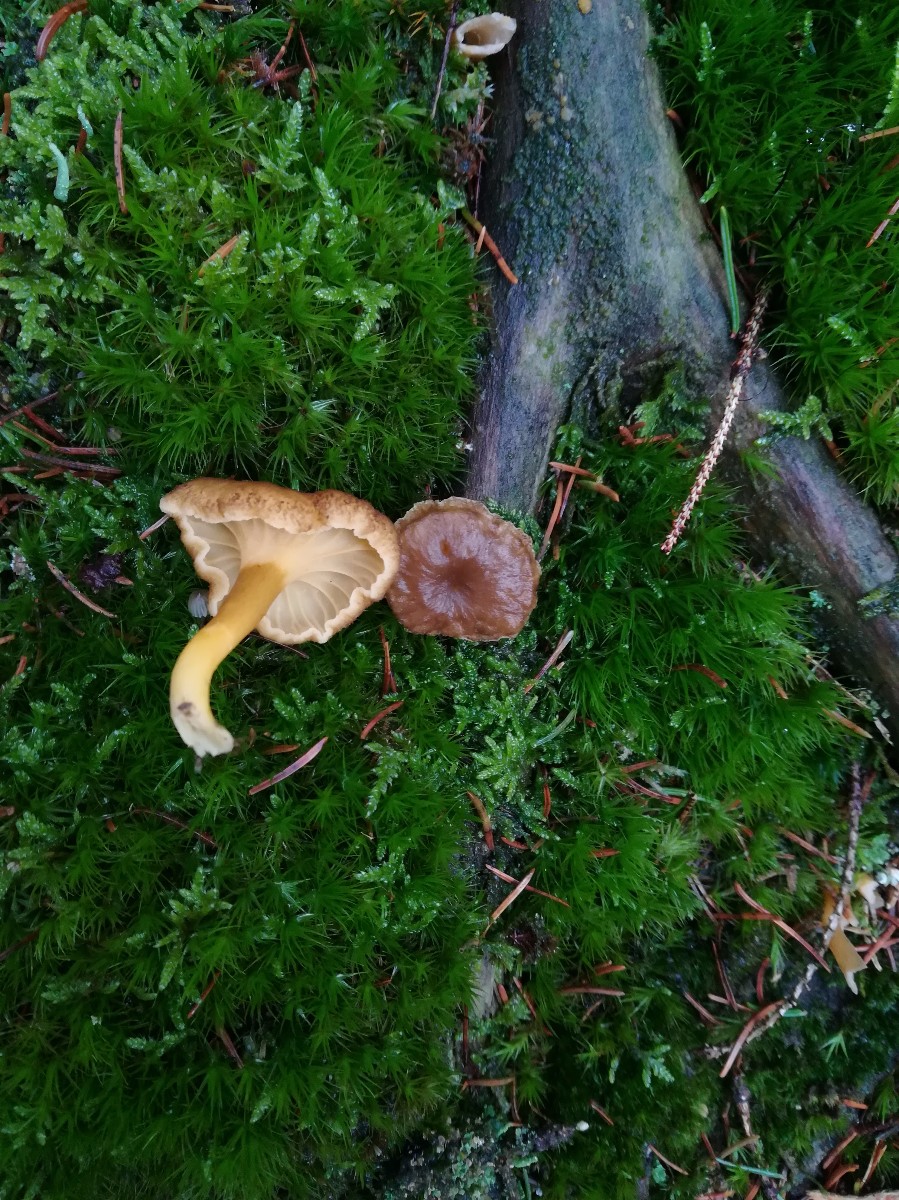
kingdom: Fungi
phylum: Basidiomycota
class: Agaricomycetes
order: Cantharellales
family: Hydnaceae
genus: Craterellus
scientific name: Craterellus tubaeformis
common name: tragt-kantarel
